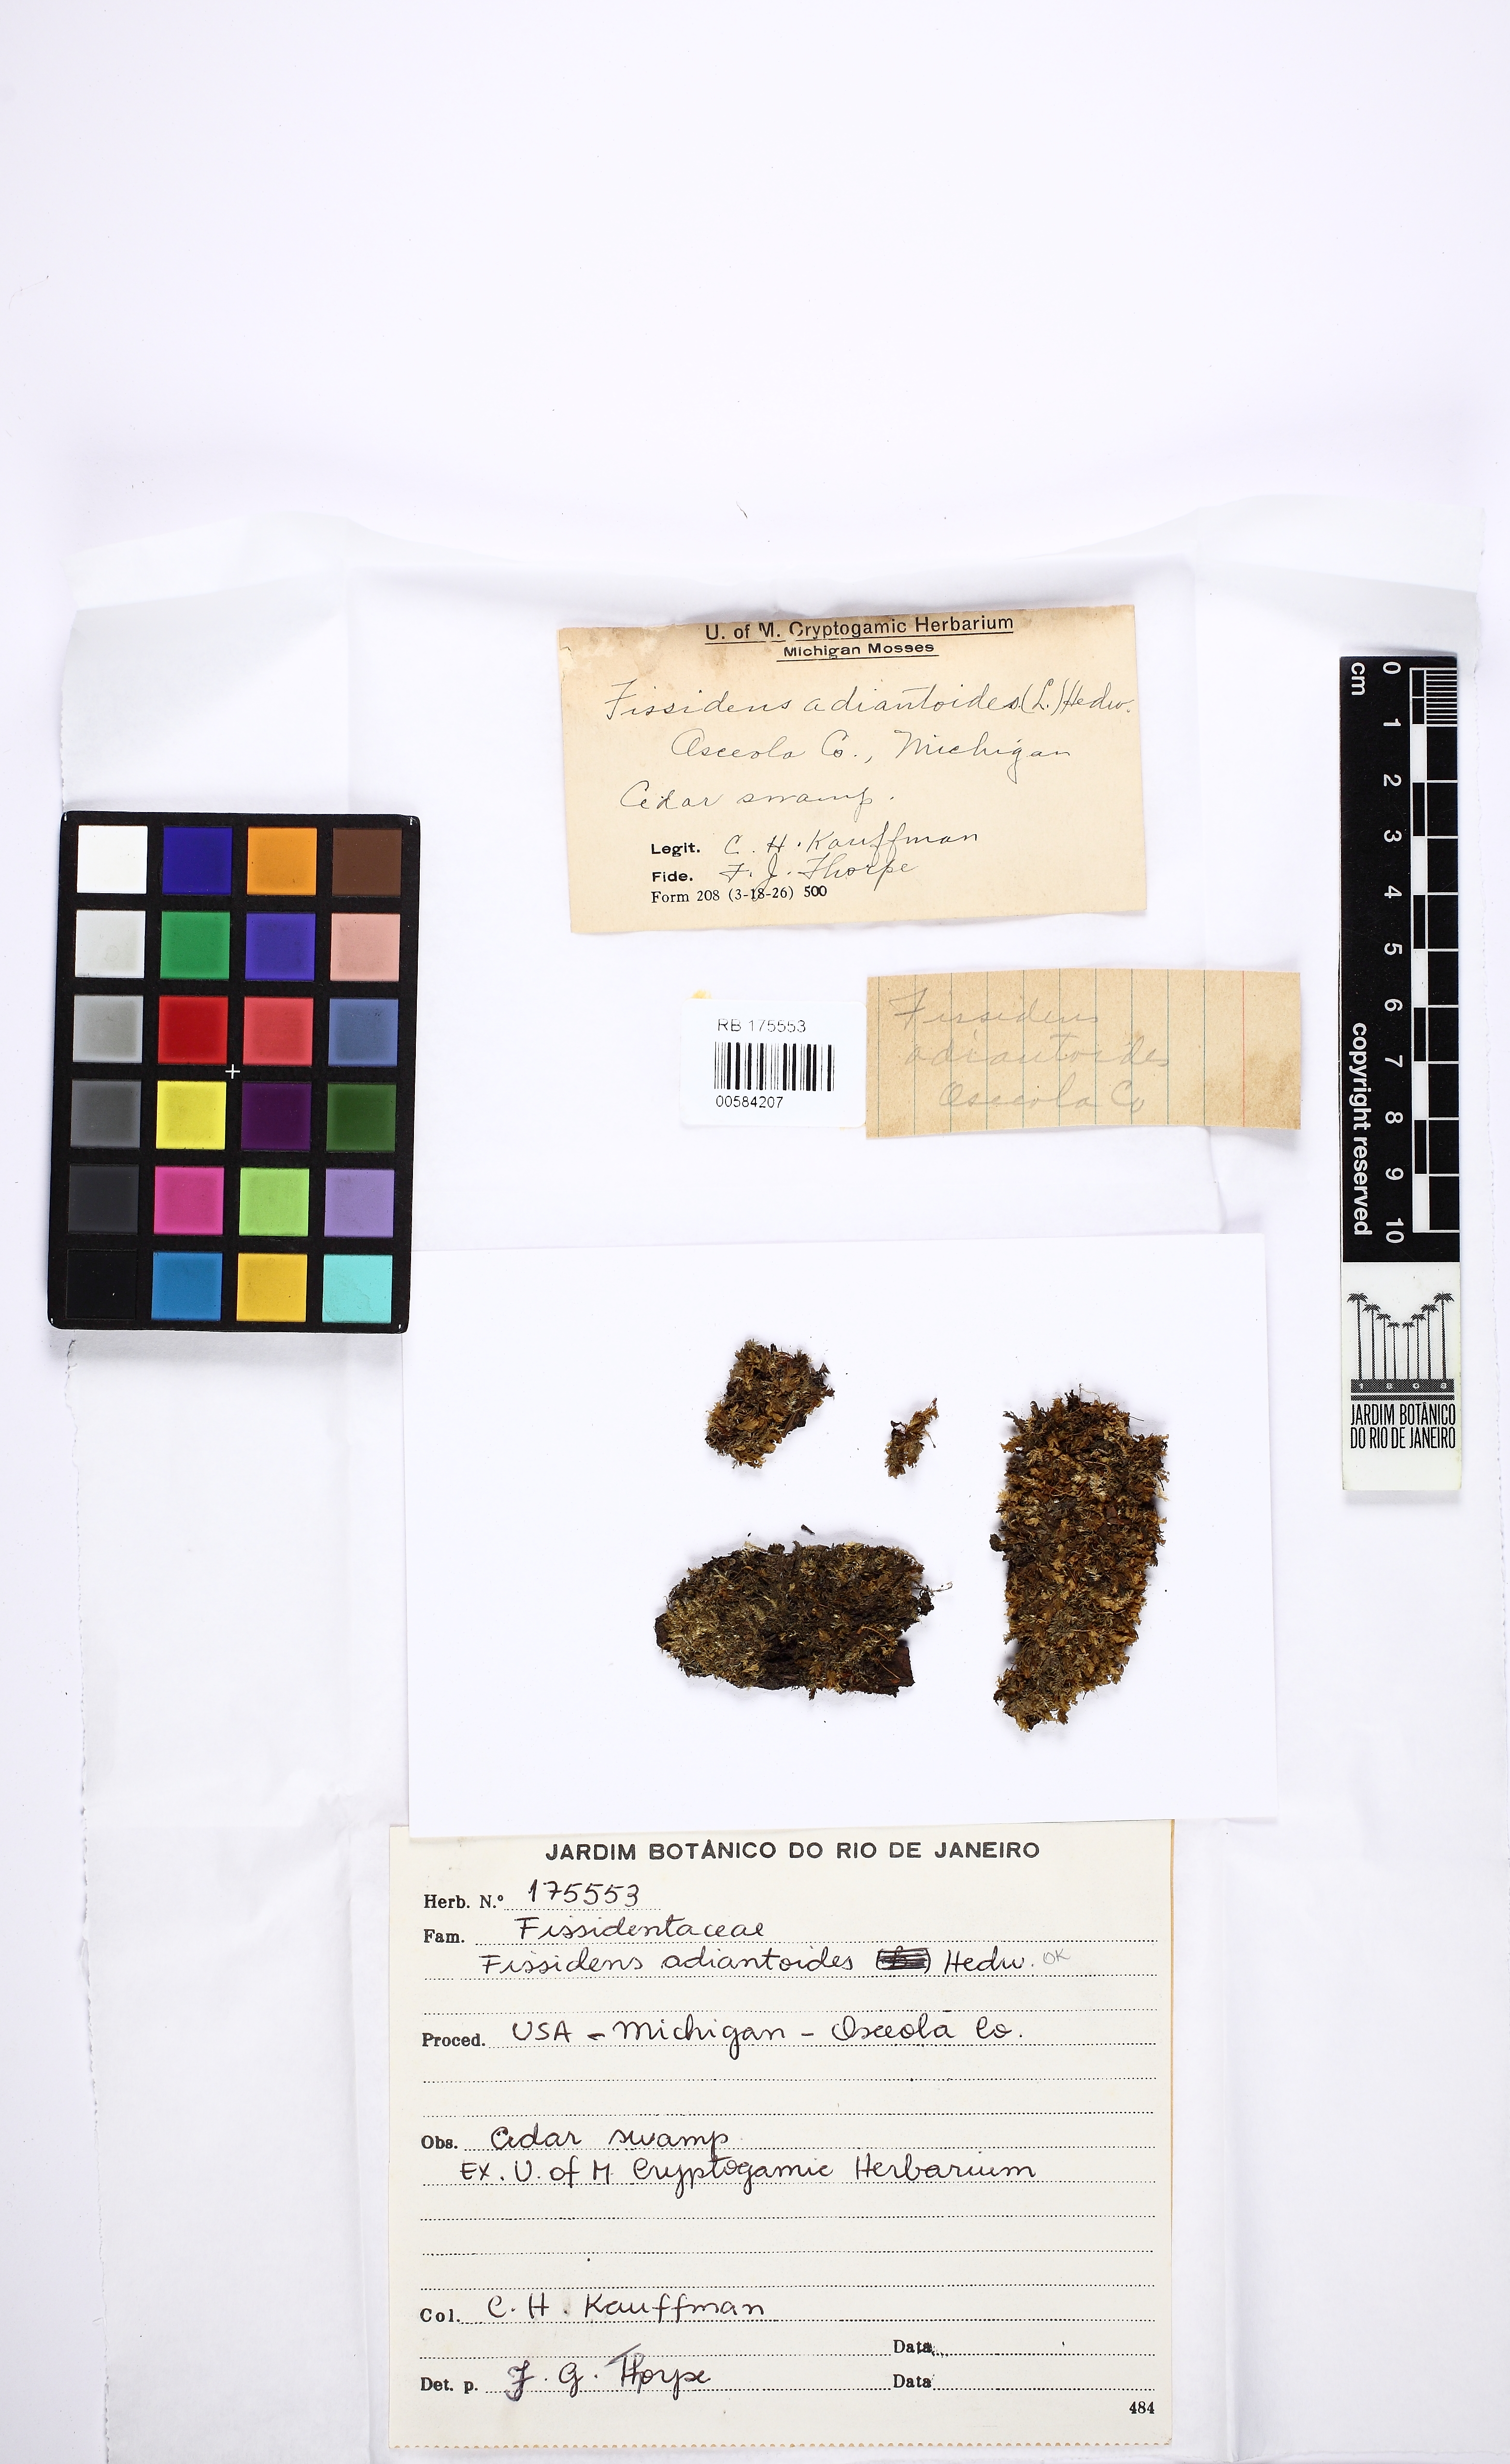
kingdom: Plantae
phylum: Bryophyta
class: Bryopsida
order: Dicranales
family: Fissidentaceae
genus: Fissidens
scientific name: Fissidens adianthoides
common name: Maidenhair pocket moss
